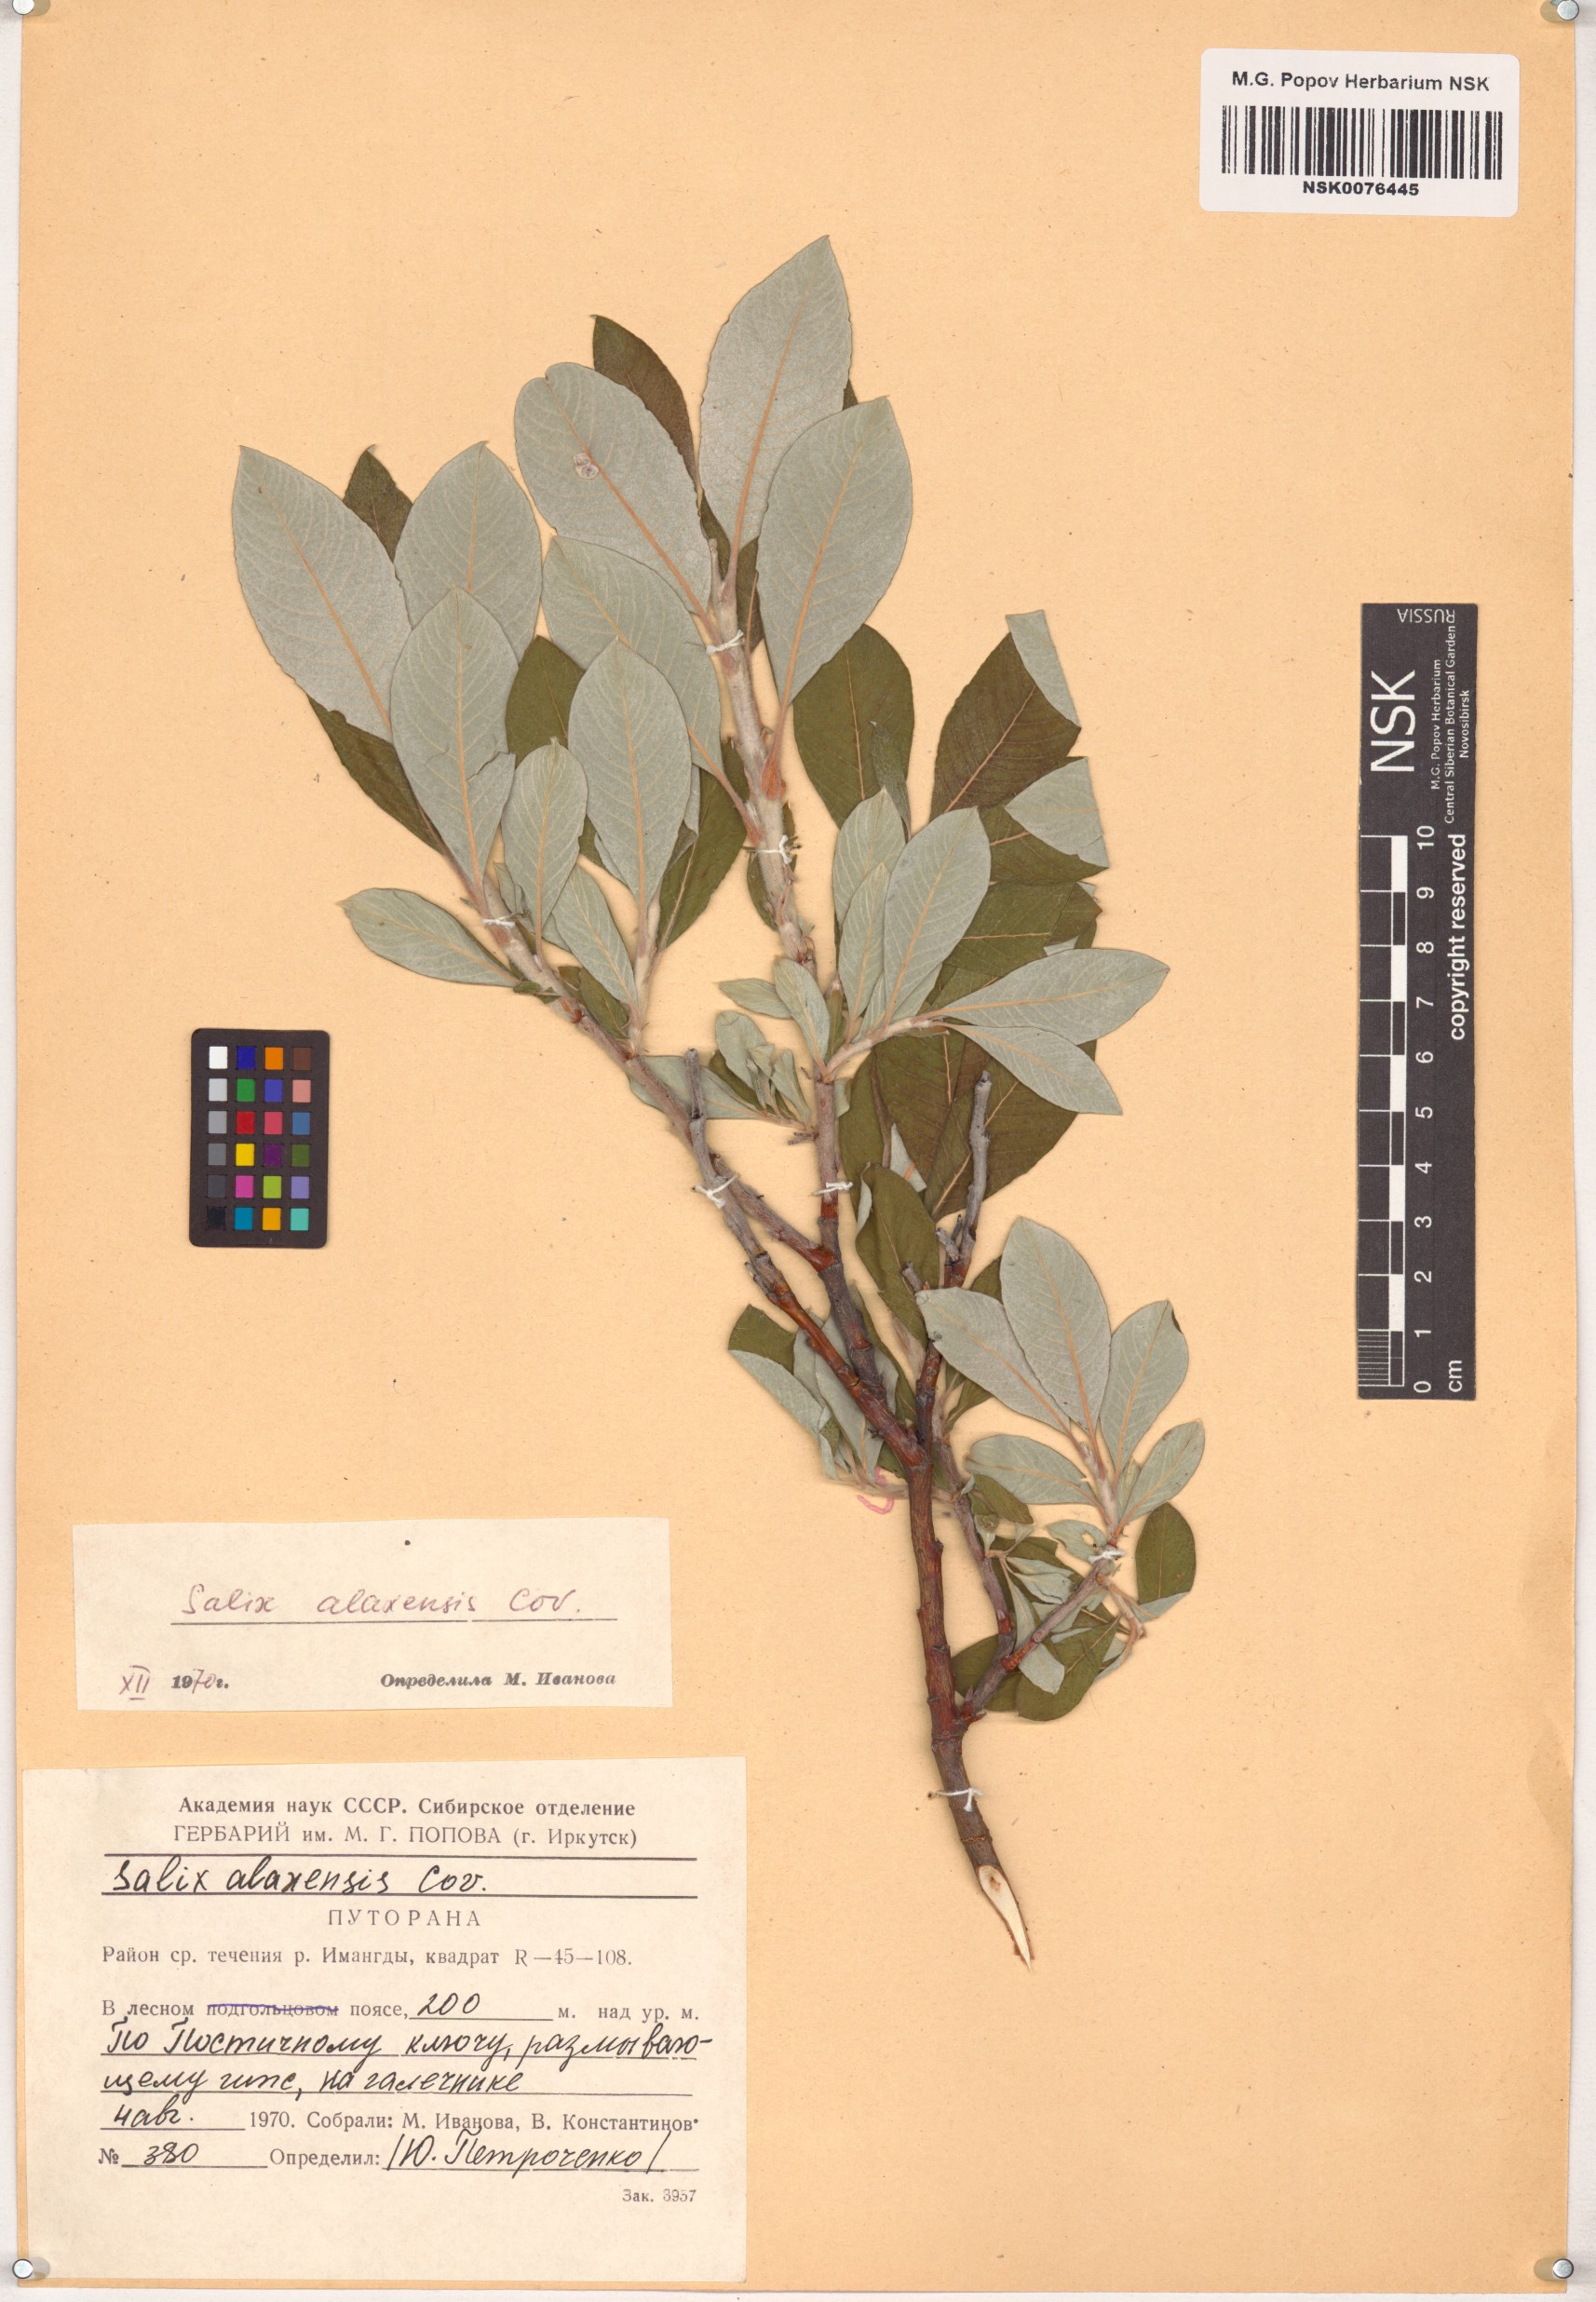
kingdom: Plantae
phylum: Tracheophyta
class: Magnoliopsida
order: Malpighiales
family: Salicaceae
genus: Salix
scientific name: Salix alaxensis
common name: Feltleaf willow
